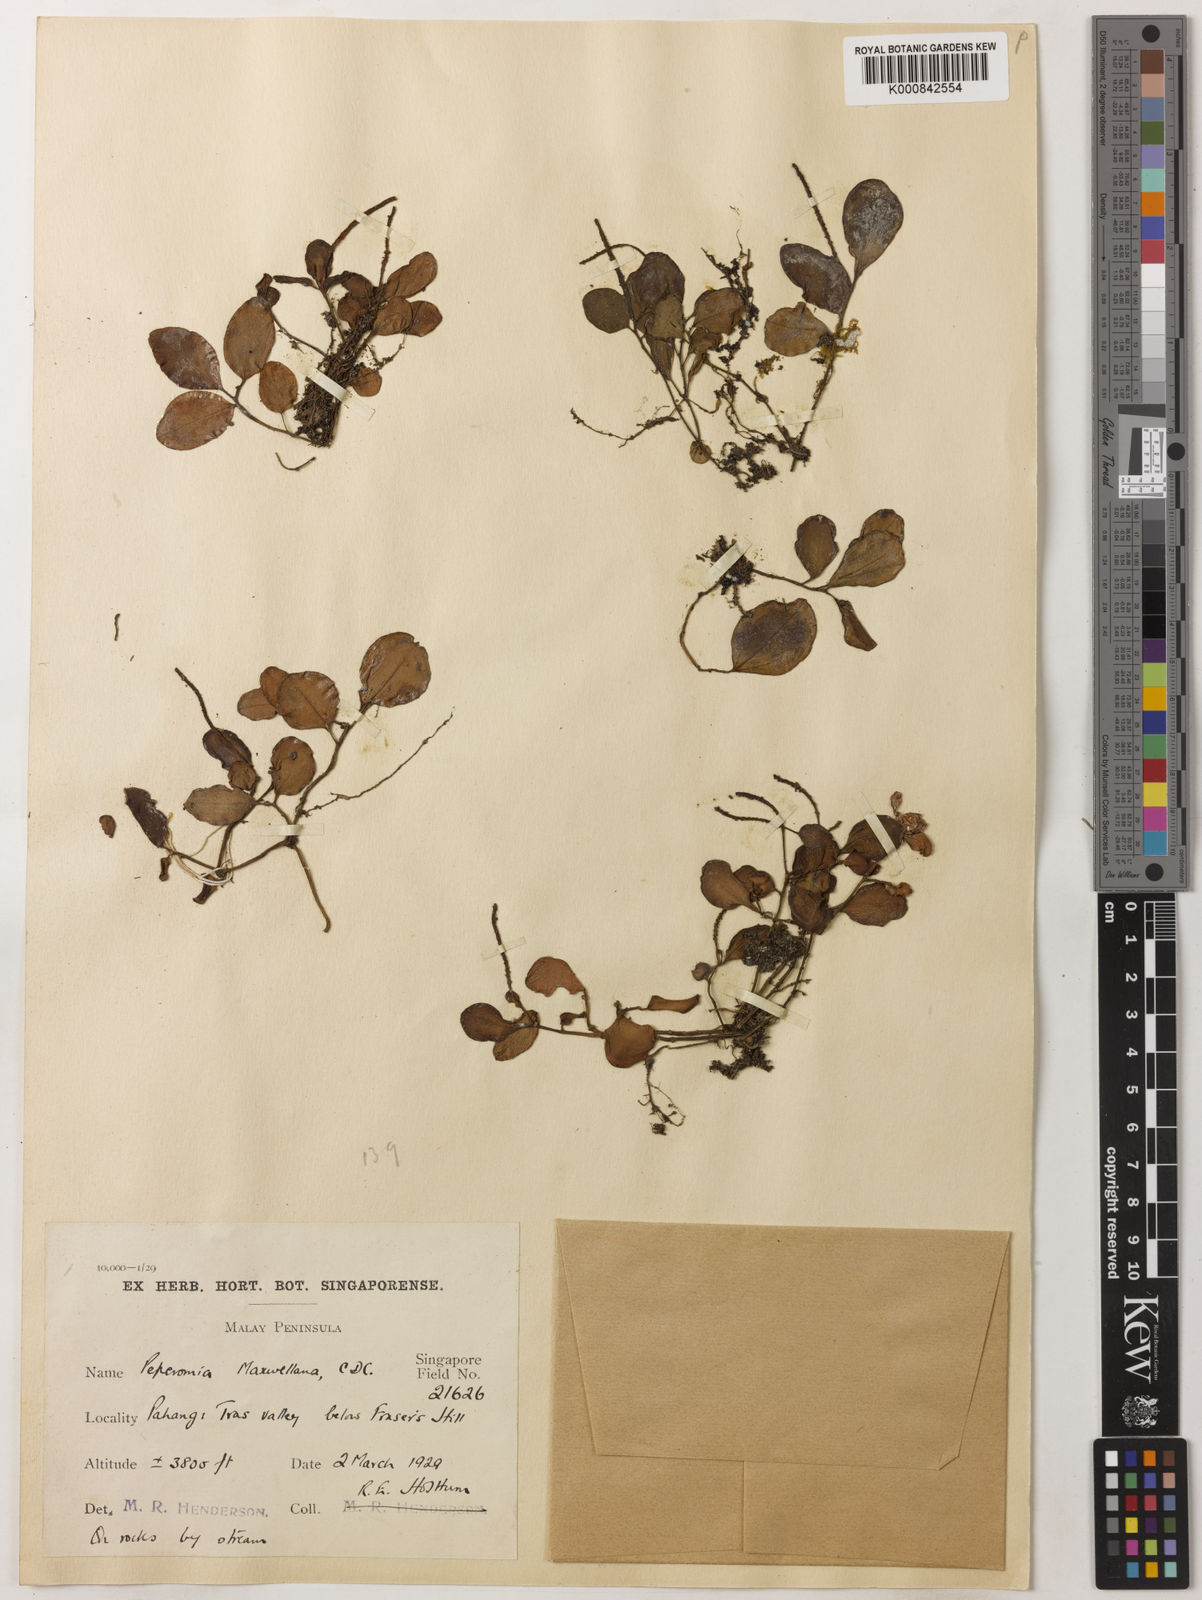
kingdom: Plantae
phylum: Tracheophyta
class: Magnoliopsida
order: Piperales
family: Piperaceae
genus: Peperomia
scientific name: Peperomia maxwellana
